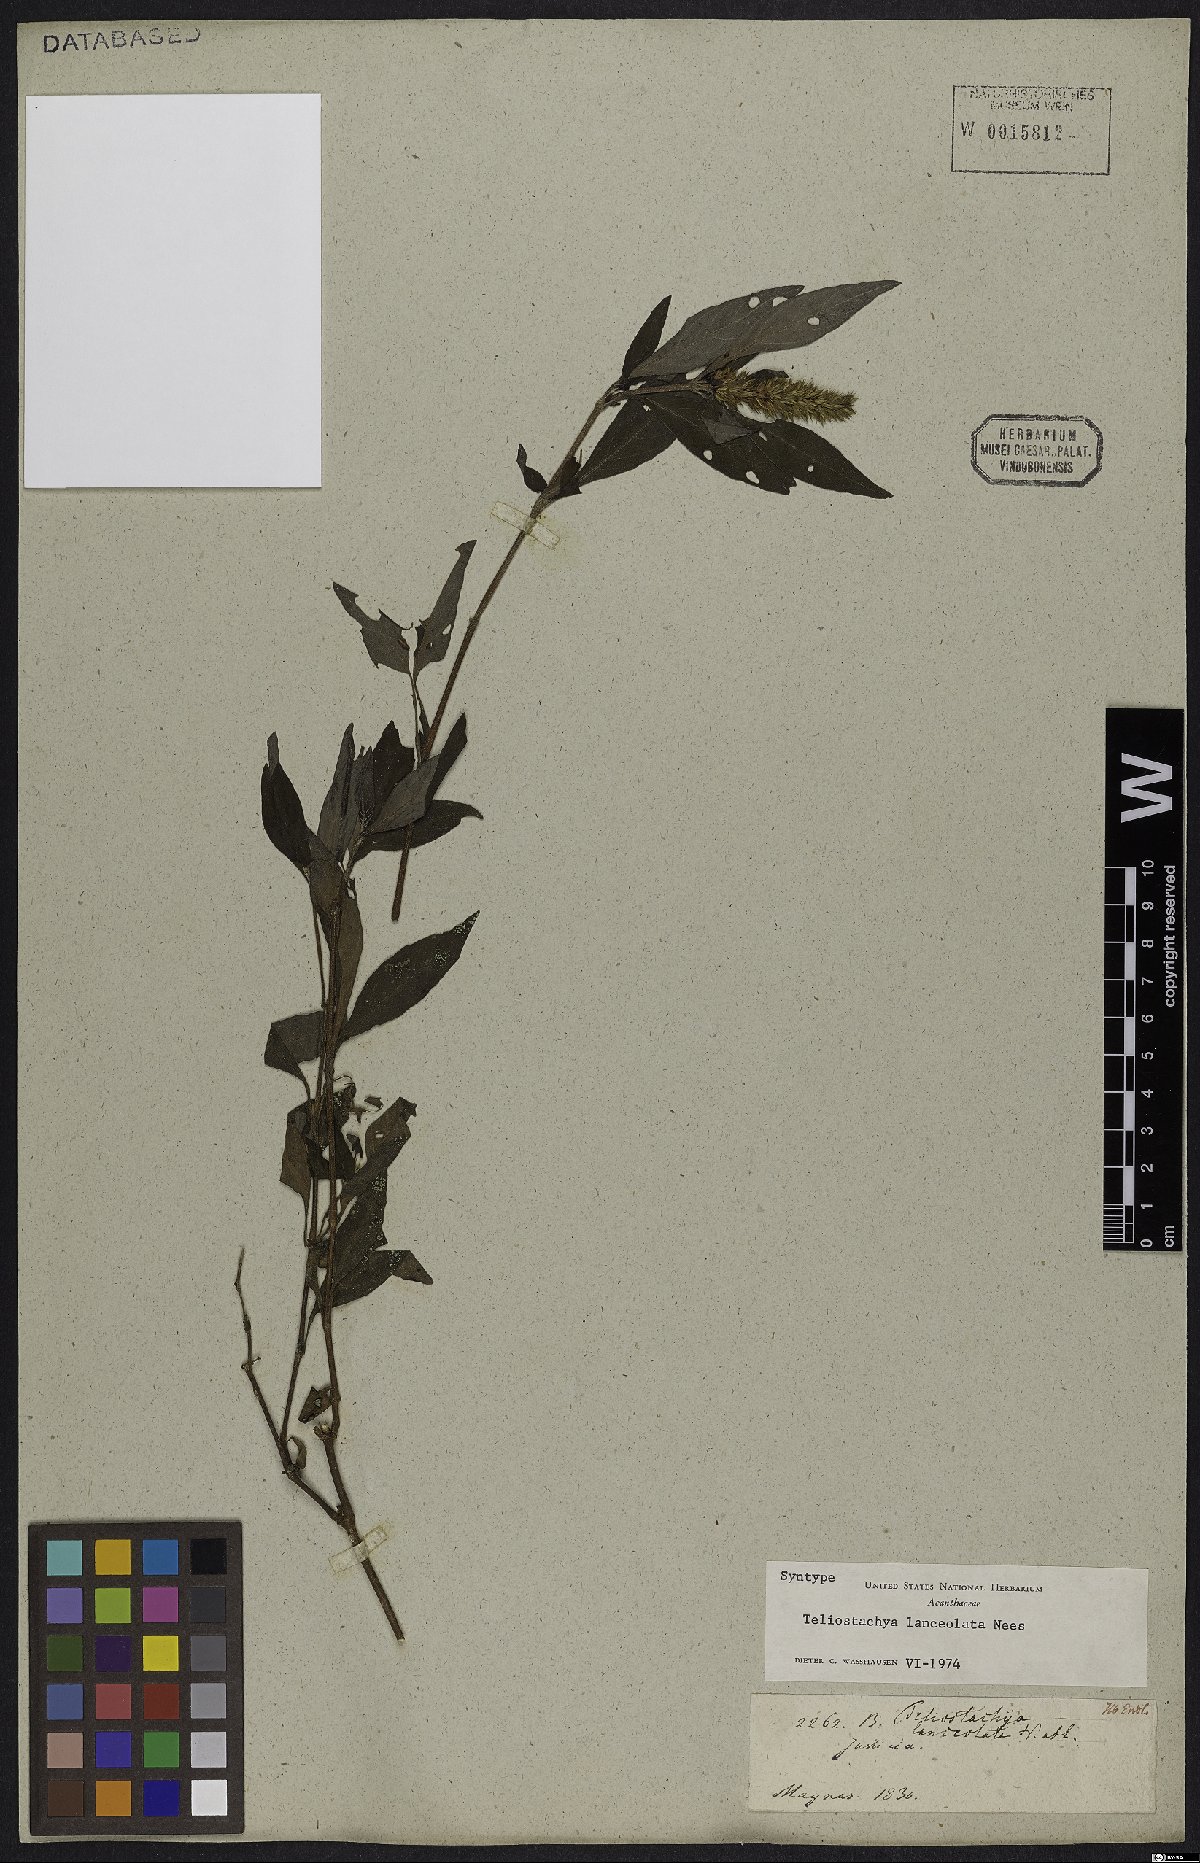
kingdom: Plantae
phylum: Tracheophyta
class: Magnoliopsida
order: Lamiales
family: Acanthaceae
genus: Lepidagathis
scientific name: Lepidagathis alopecuroidea
